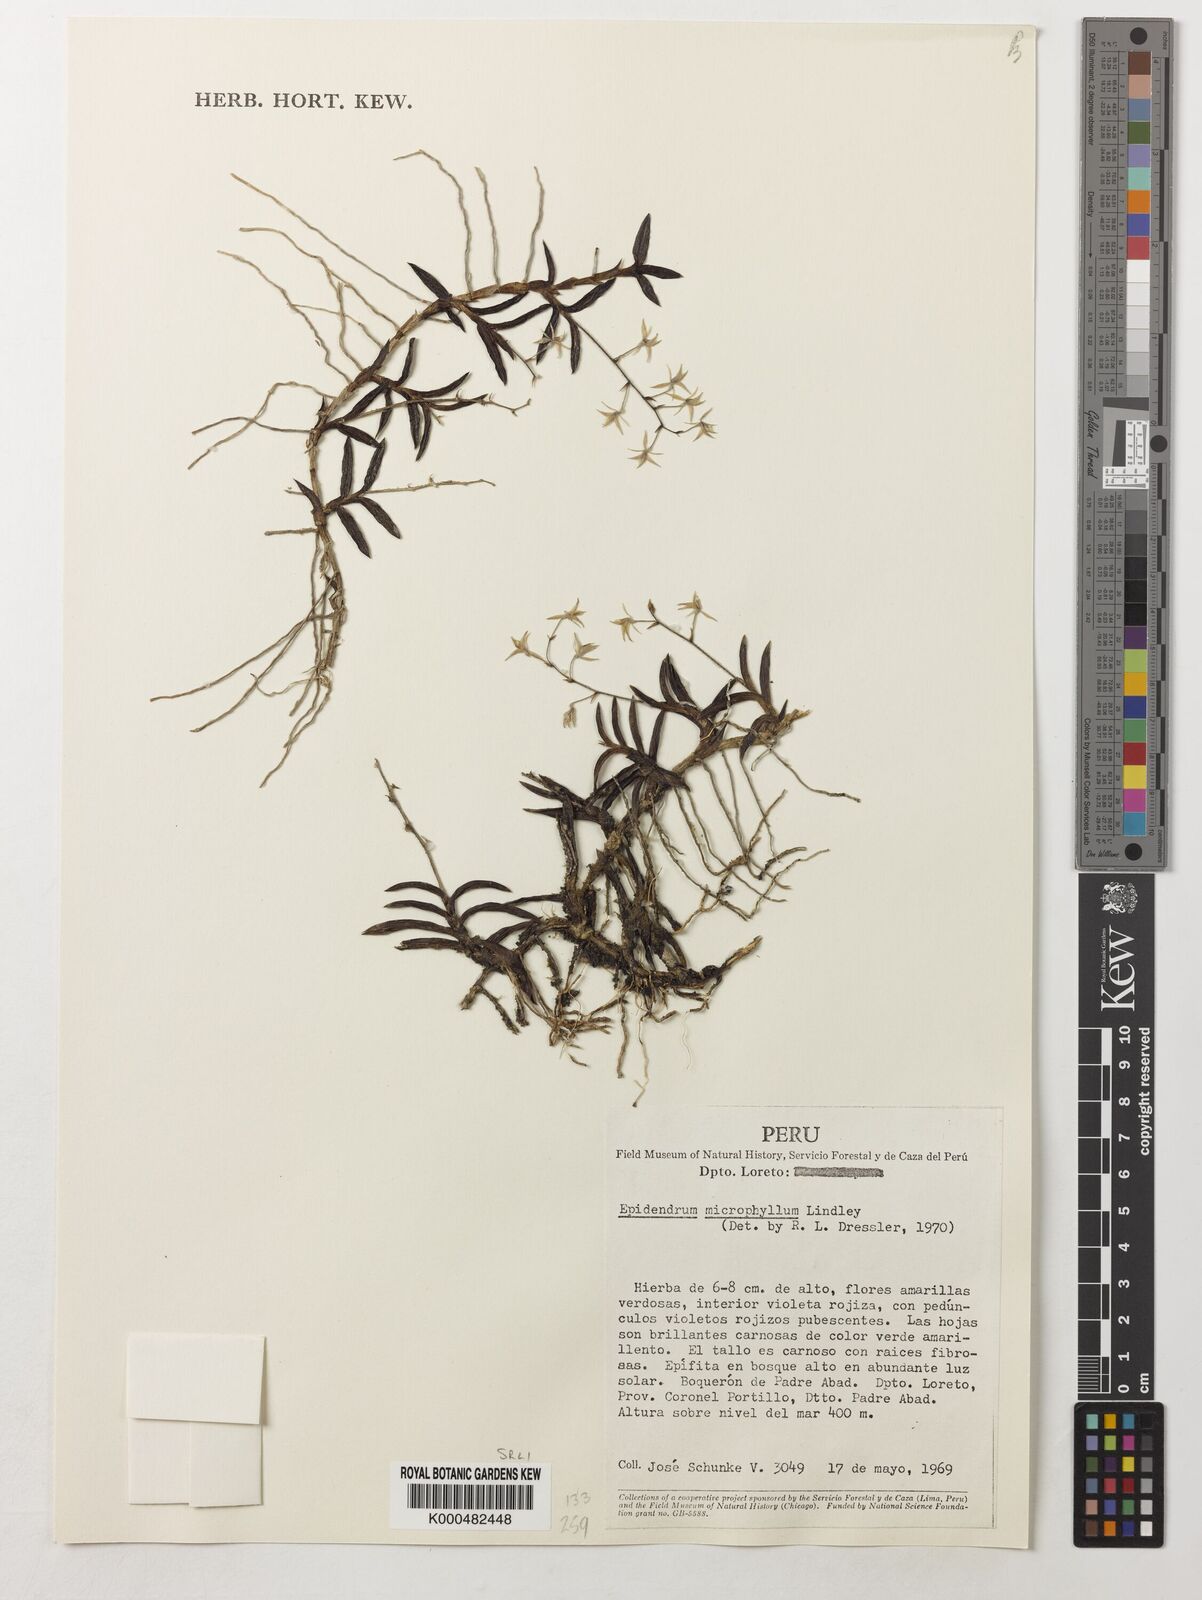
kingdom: Plantae
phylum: Tracheophyta
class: Liliopsida
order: Asparagales
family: Orchidaceae
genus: Epidendrum
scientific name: Epidendrum microphyllum
